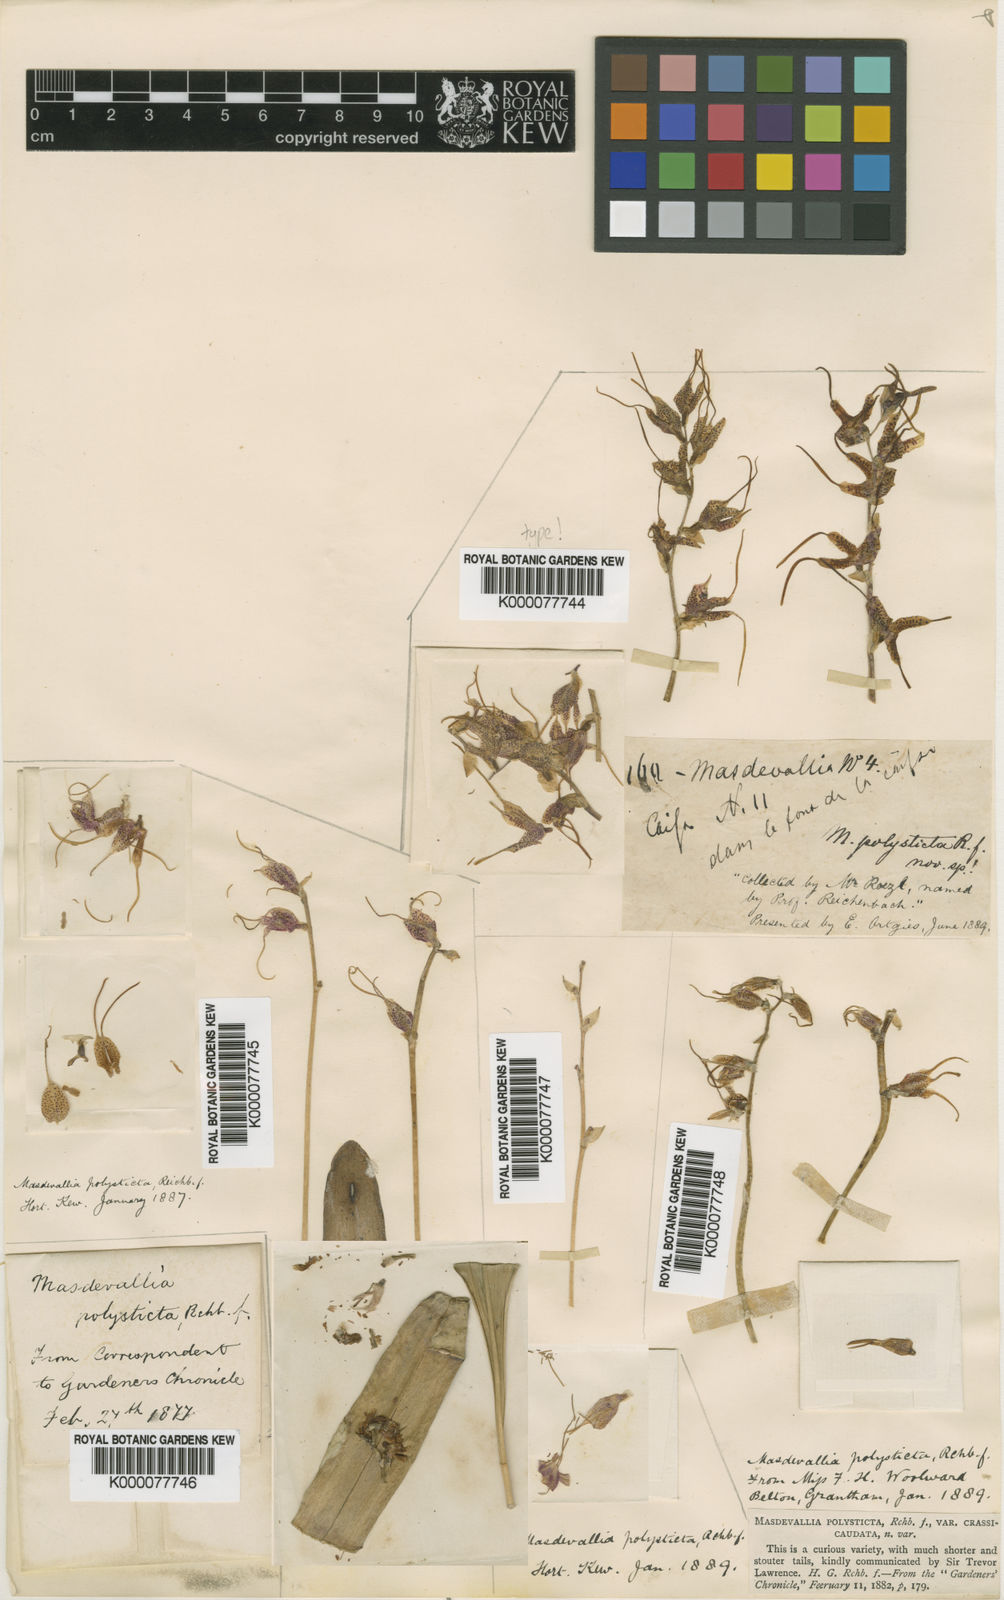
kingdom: Plantae
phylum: Tracheophyta
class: Liliopsida
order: Asparagales
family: Orchidaceae
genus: Masdevallia
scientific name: Masdevallia polysticta
